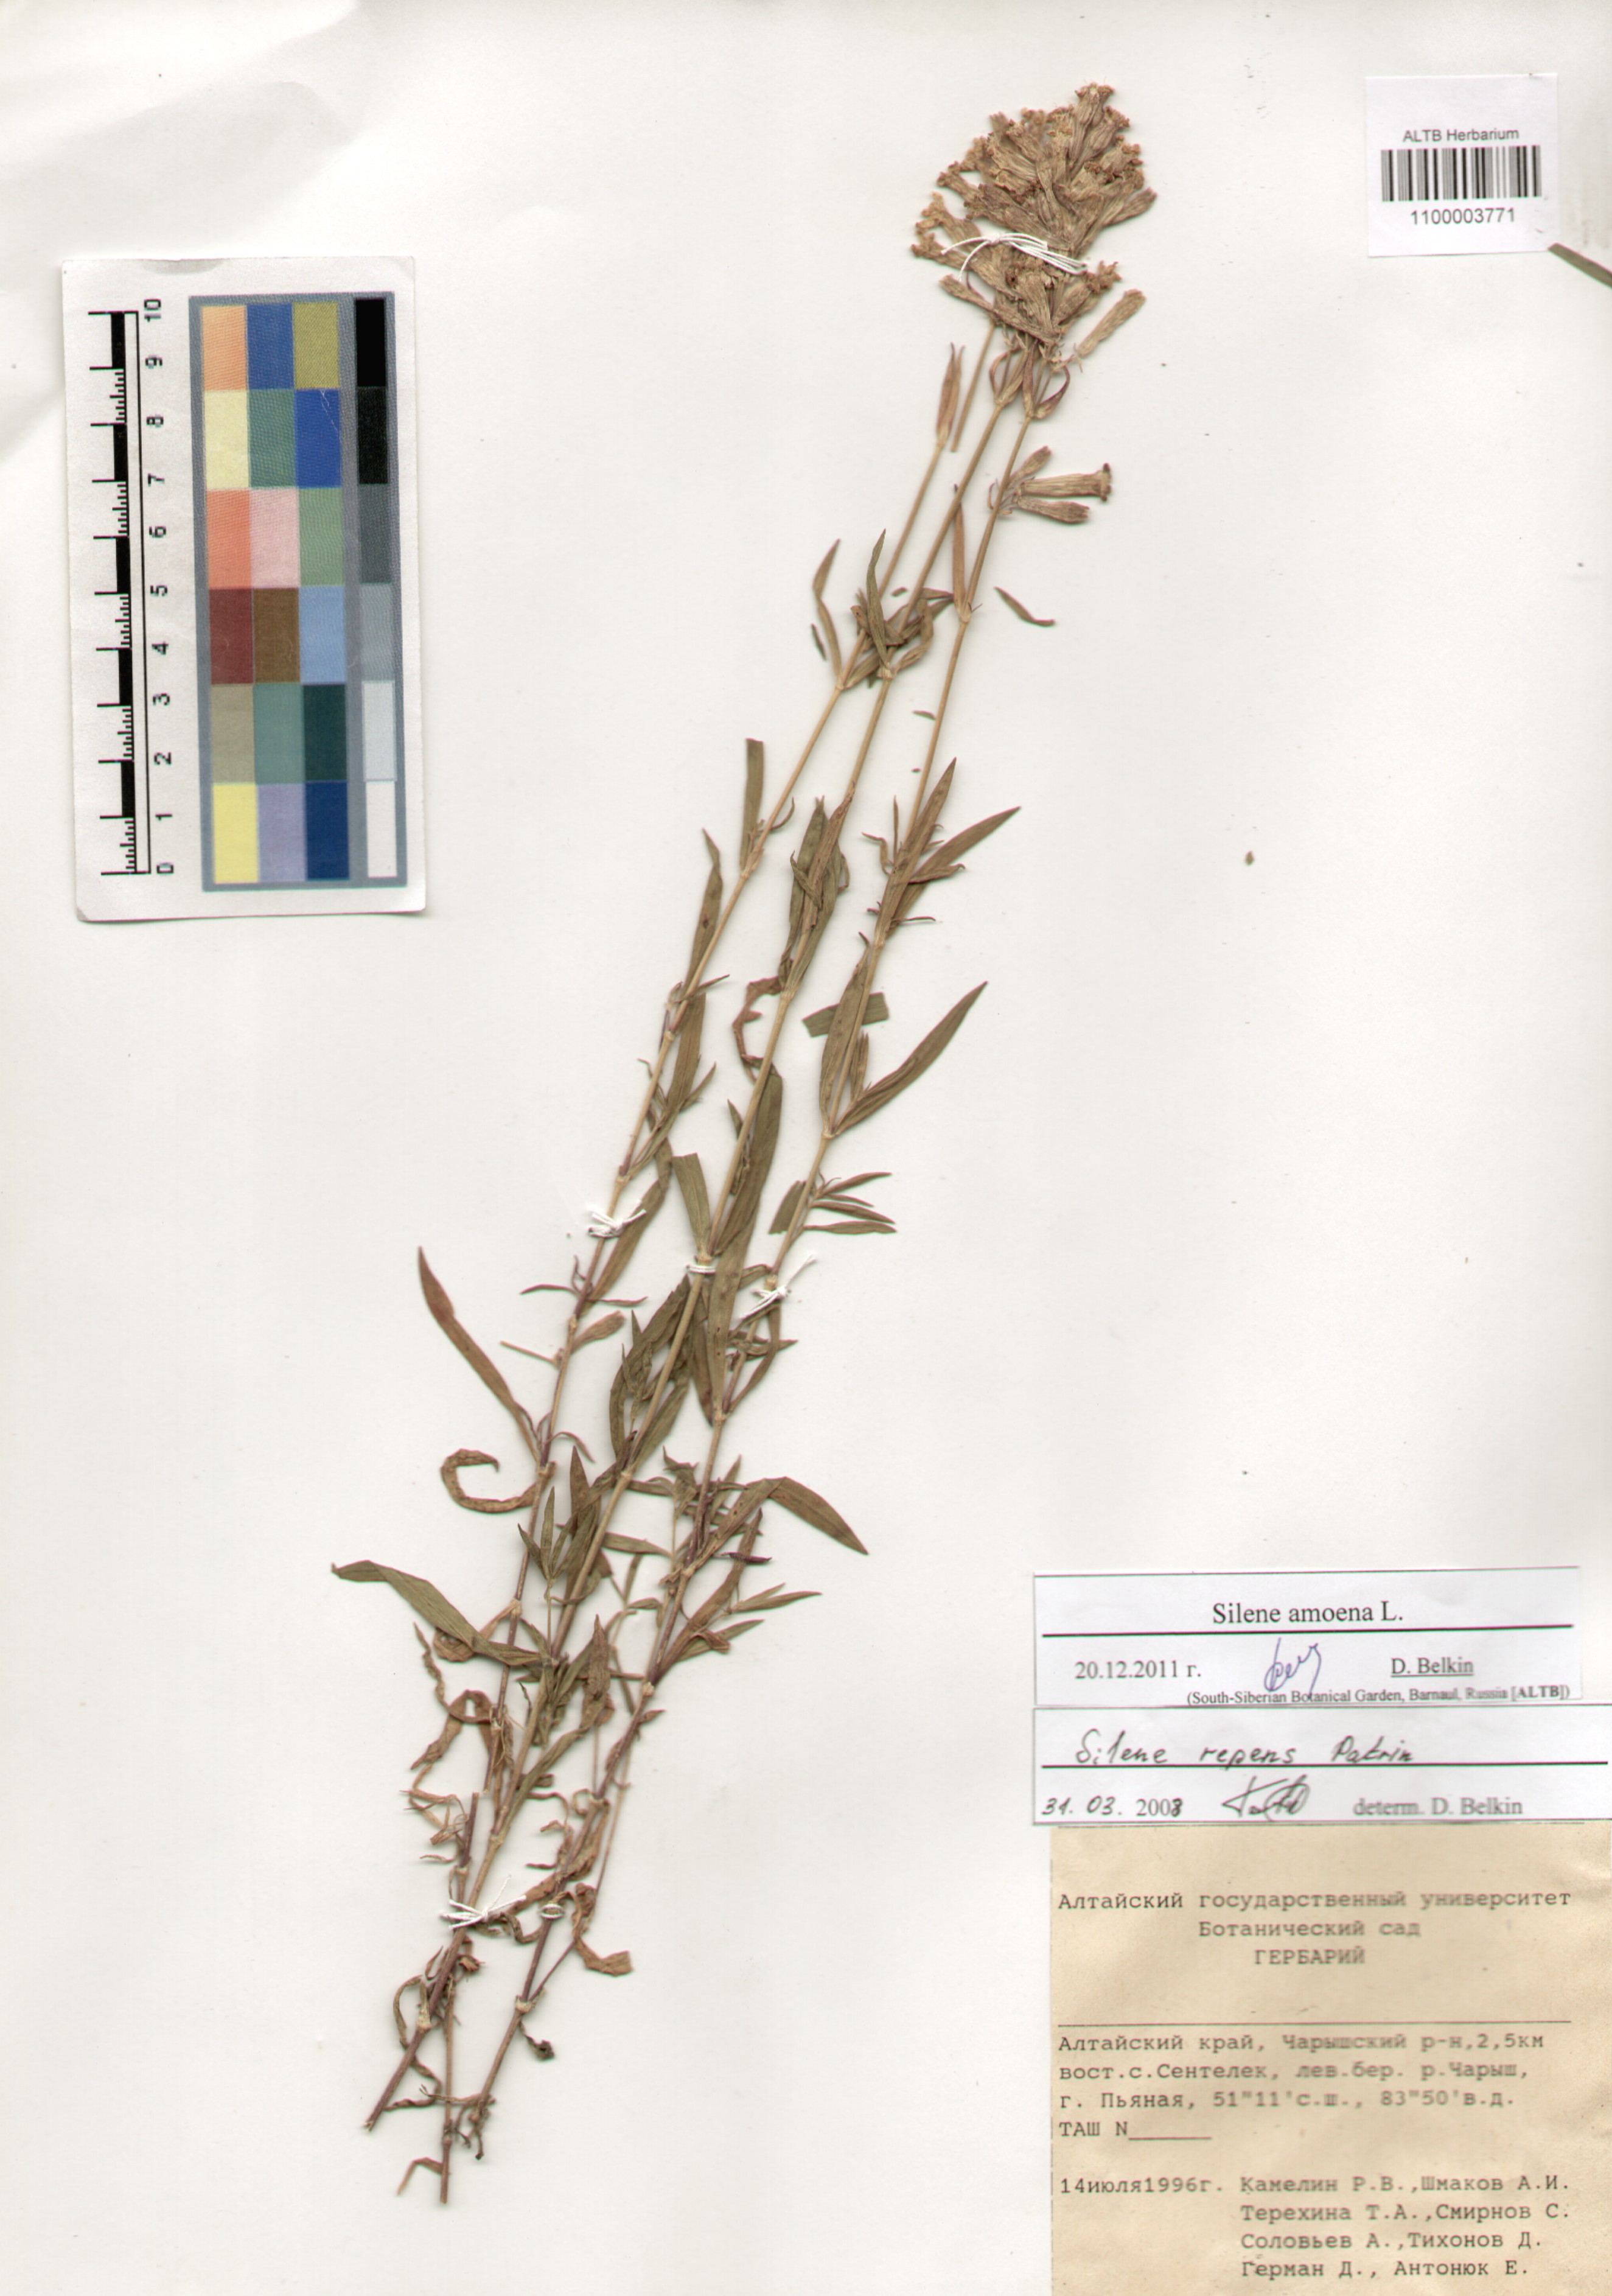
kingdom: Plantae
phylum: Tracheophyta
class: Magnoliopsida
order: Caryophyllales
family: Caryophyllaceae
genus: Silene
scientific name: Silene amoena
